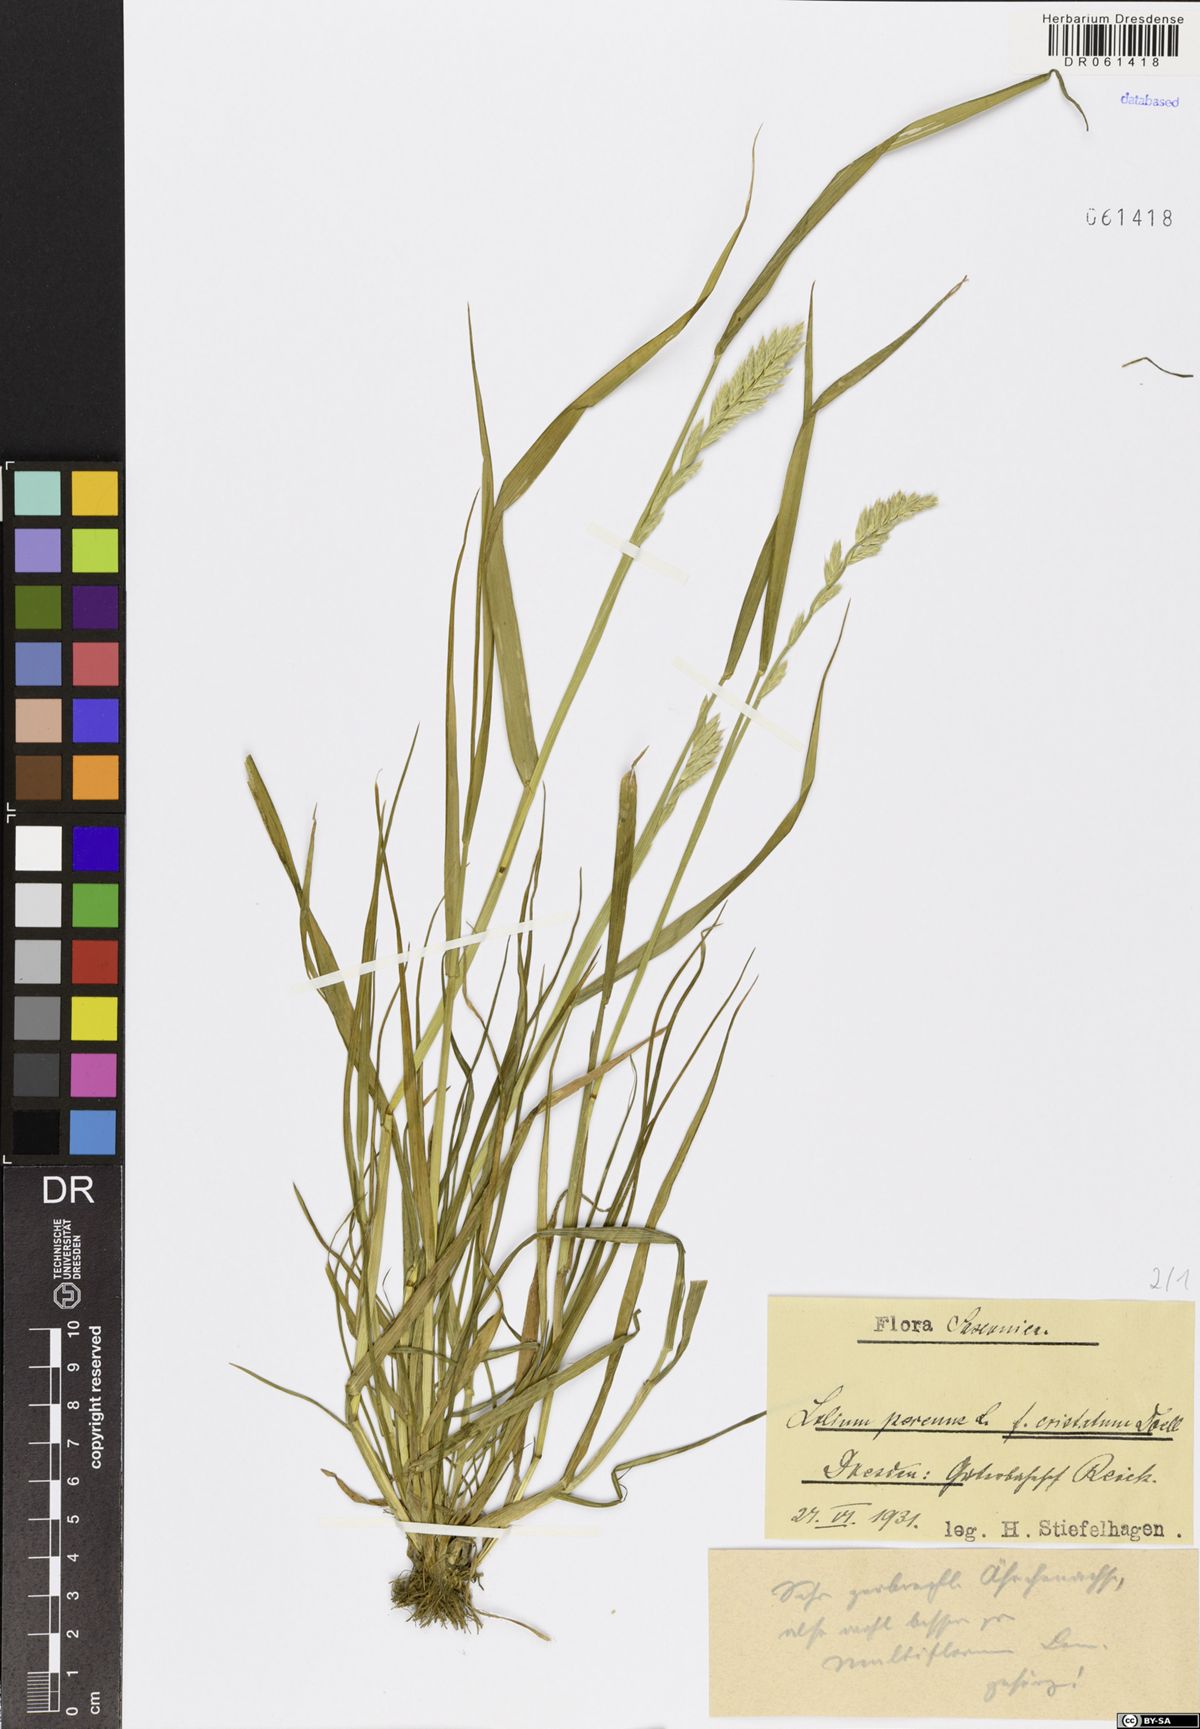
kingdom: Plantae
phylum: Tracheophyta
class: Liliopsida
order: Poales
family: Poaceae
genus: Lolium
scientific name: Lolium perenne
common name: Perennial ryegrass
